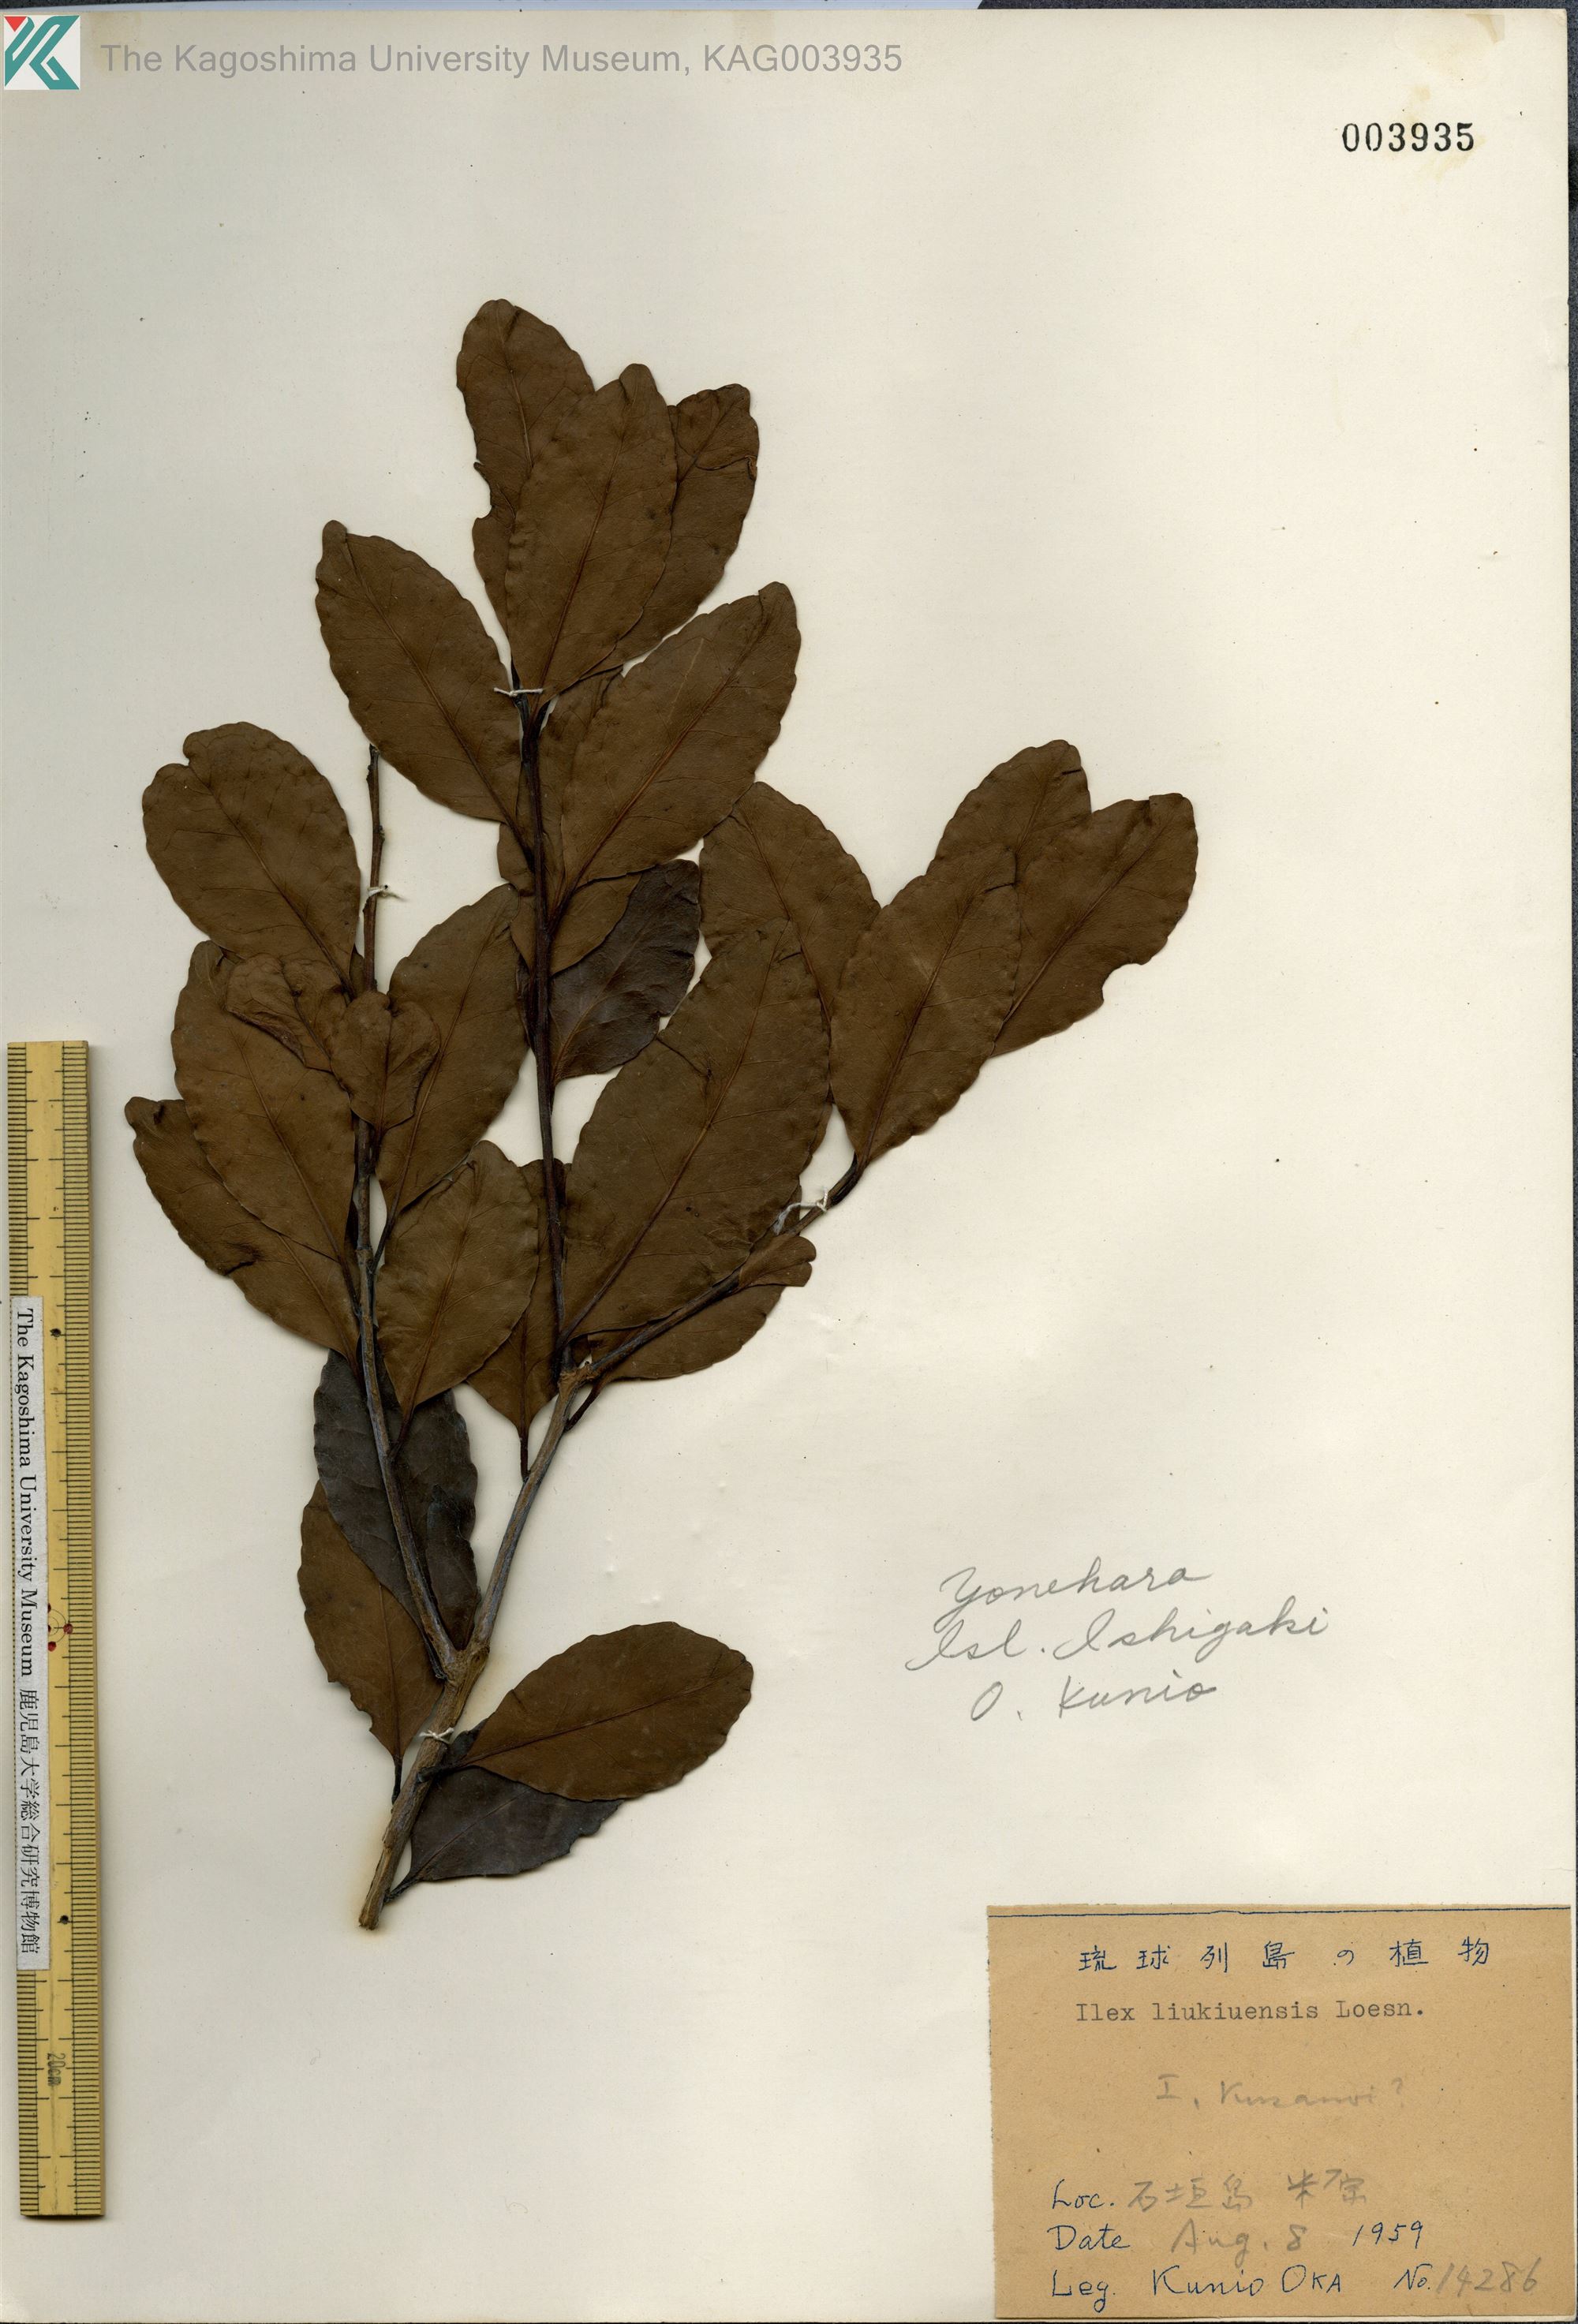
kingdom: Plantae
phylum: Tracheophyta
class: Magnoliopsida
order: Aquifoliales
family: Aquifoliaceae
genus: Ilex
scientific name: Ilex liukiuensis
